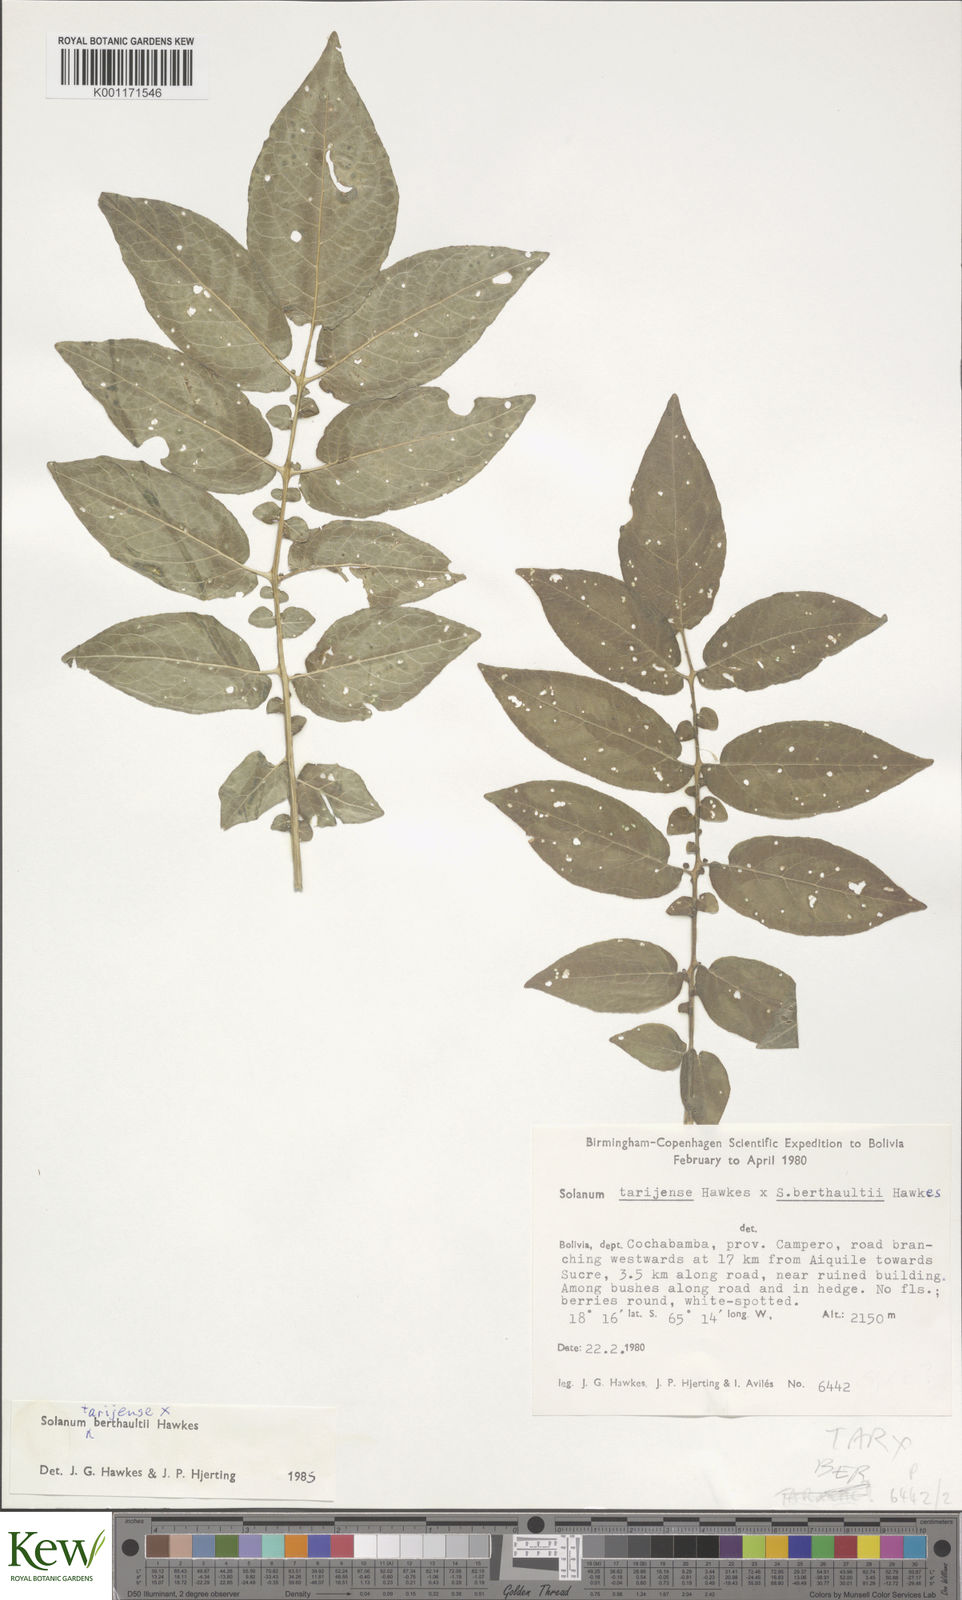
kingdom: Plantae
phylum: Tracheophyta
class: Magnoliopsida
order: Solanales
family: Solanaceae
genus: Solanum
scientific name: Solanum tarijense
